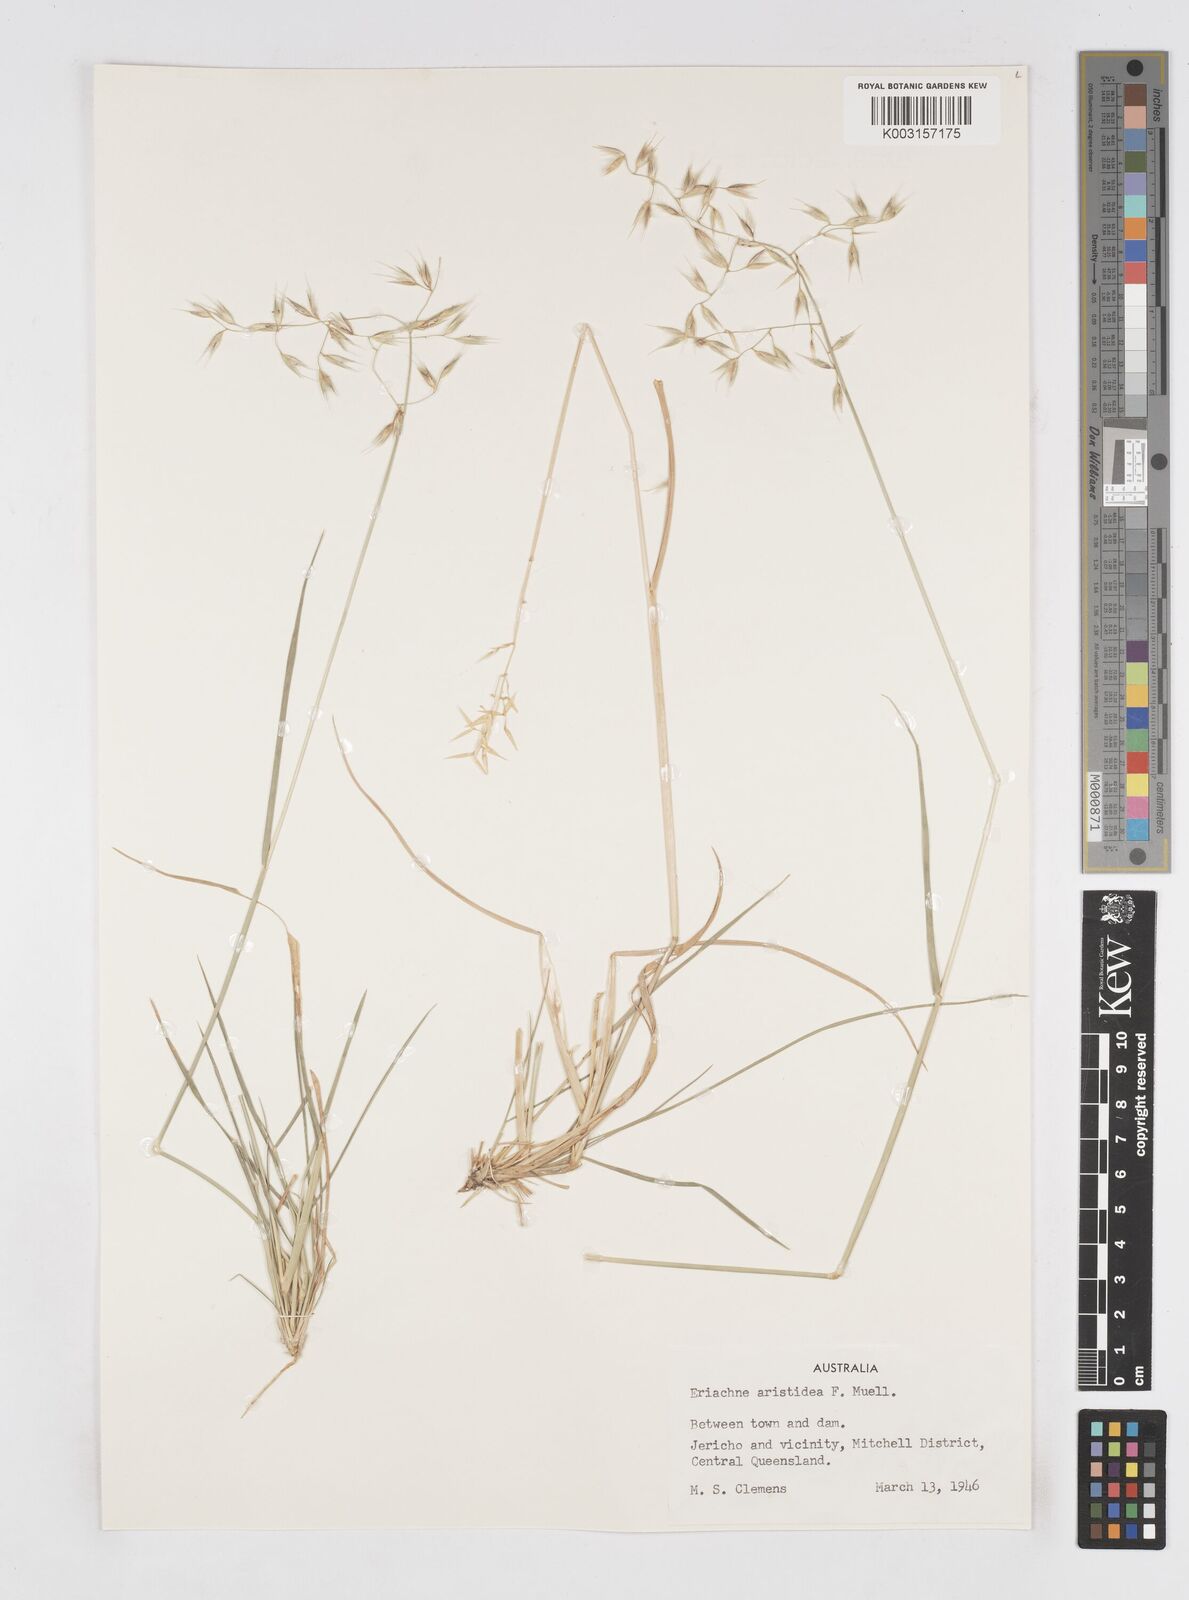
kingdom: Plantae
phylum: Tracheophyta
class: Liliopsida
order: Poales
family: Poaceae
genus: Eriachne
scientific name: Eriachne aristidea
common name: Three-awn wanderrie grass
